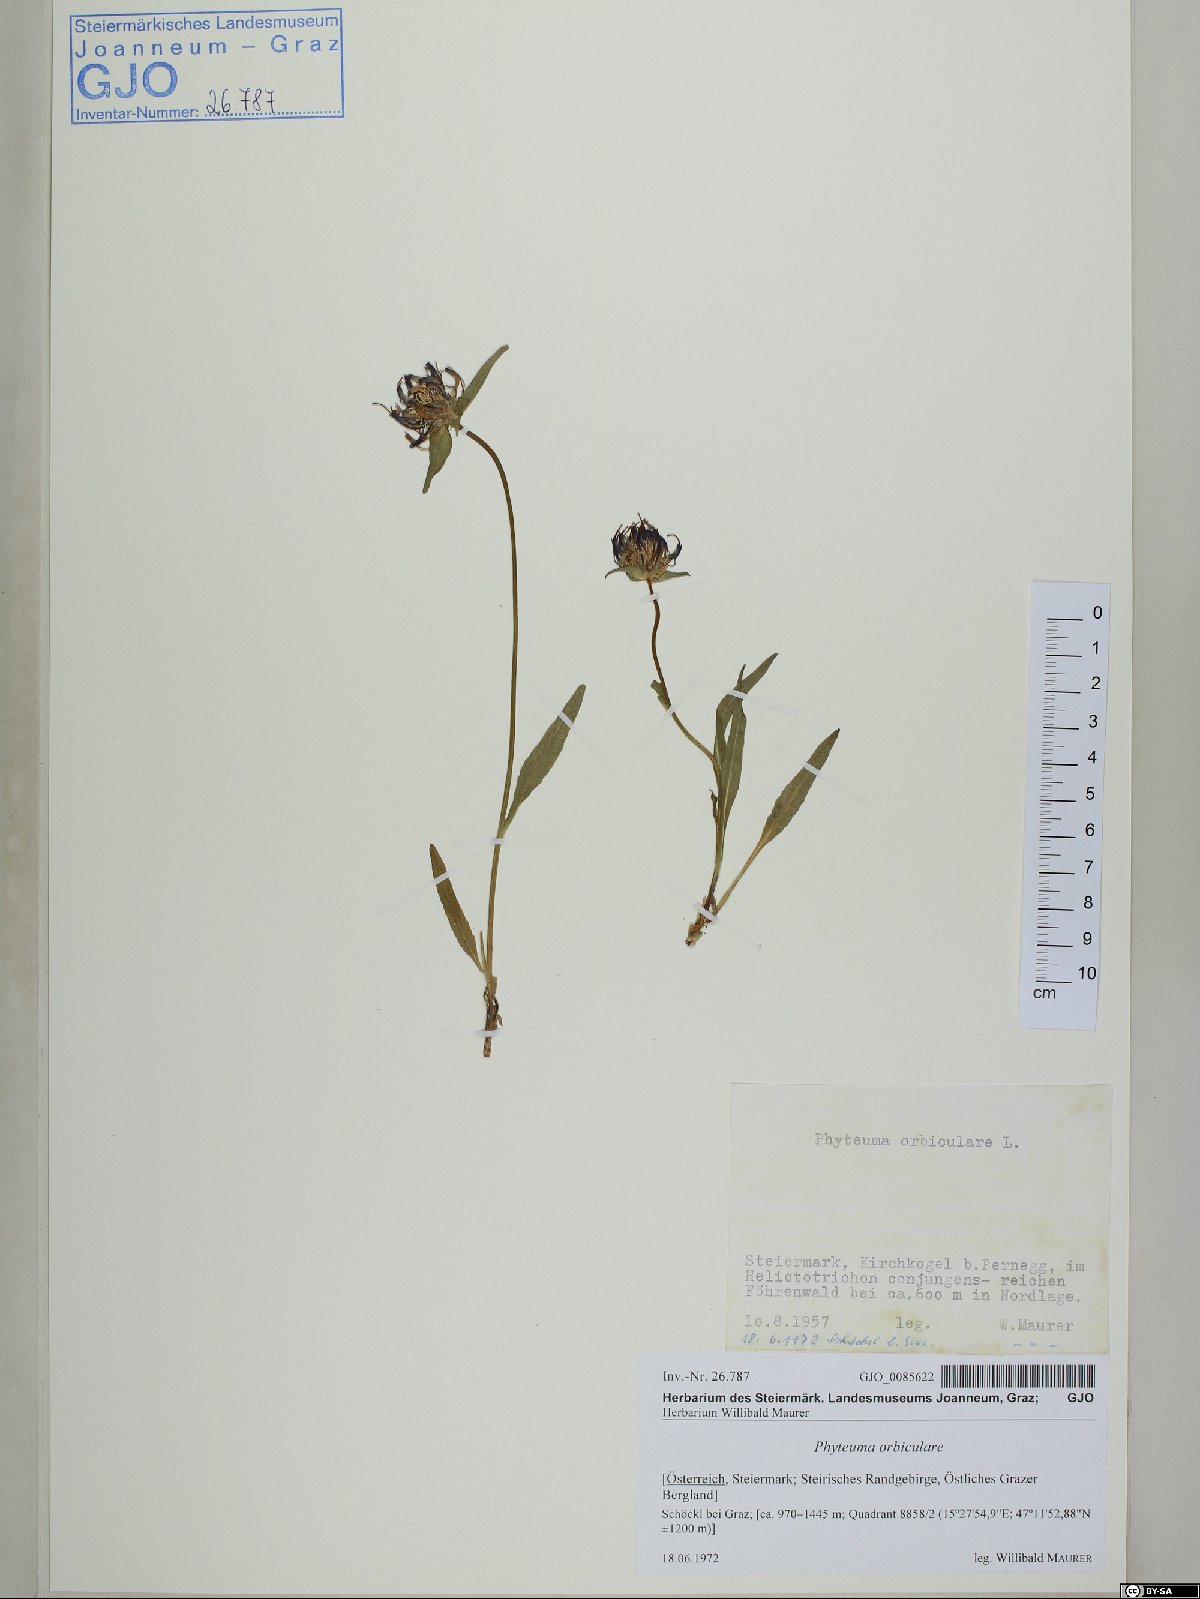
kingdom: Plantae
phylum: Tracheophyta
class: Magnoliopsida
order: Asterales
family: Campanulaceae
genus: Phyteuma
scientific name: Phyteuma orbiculare
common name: Round-headed rampion
